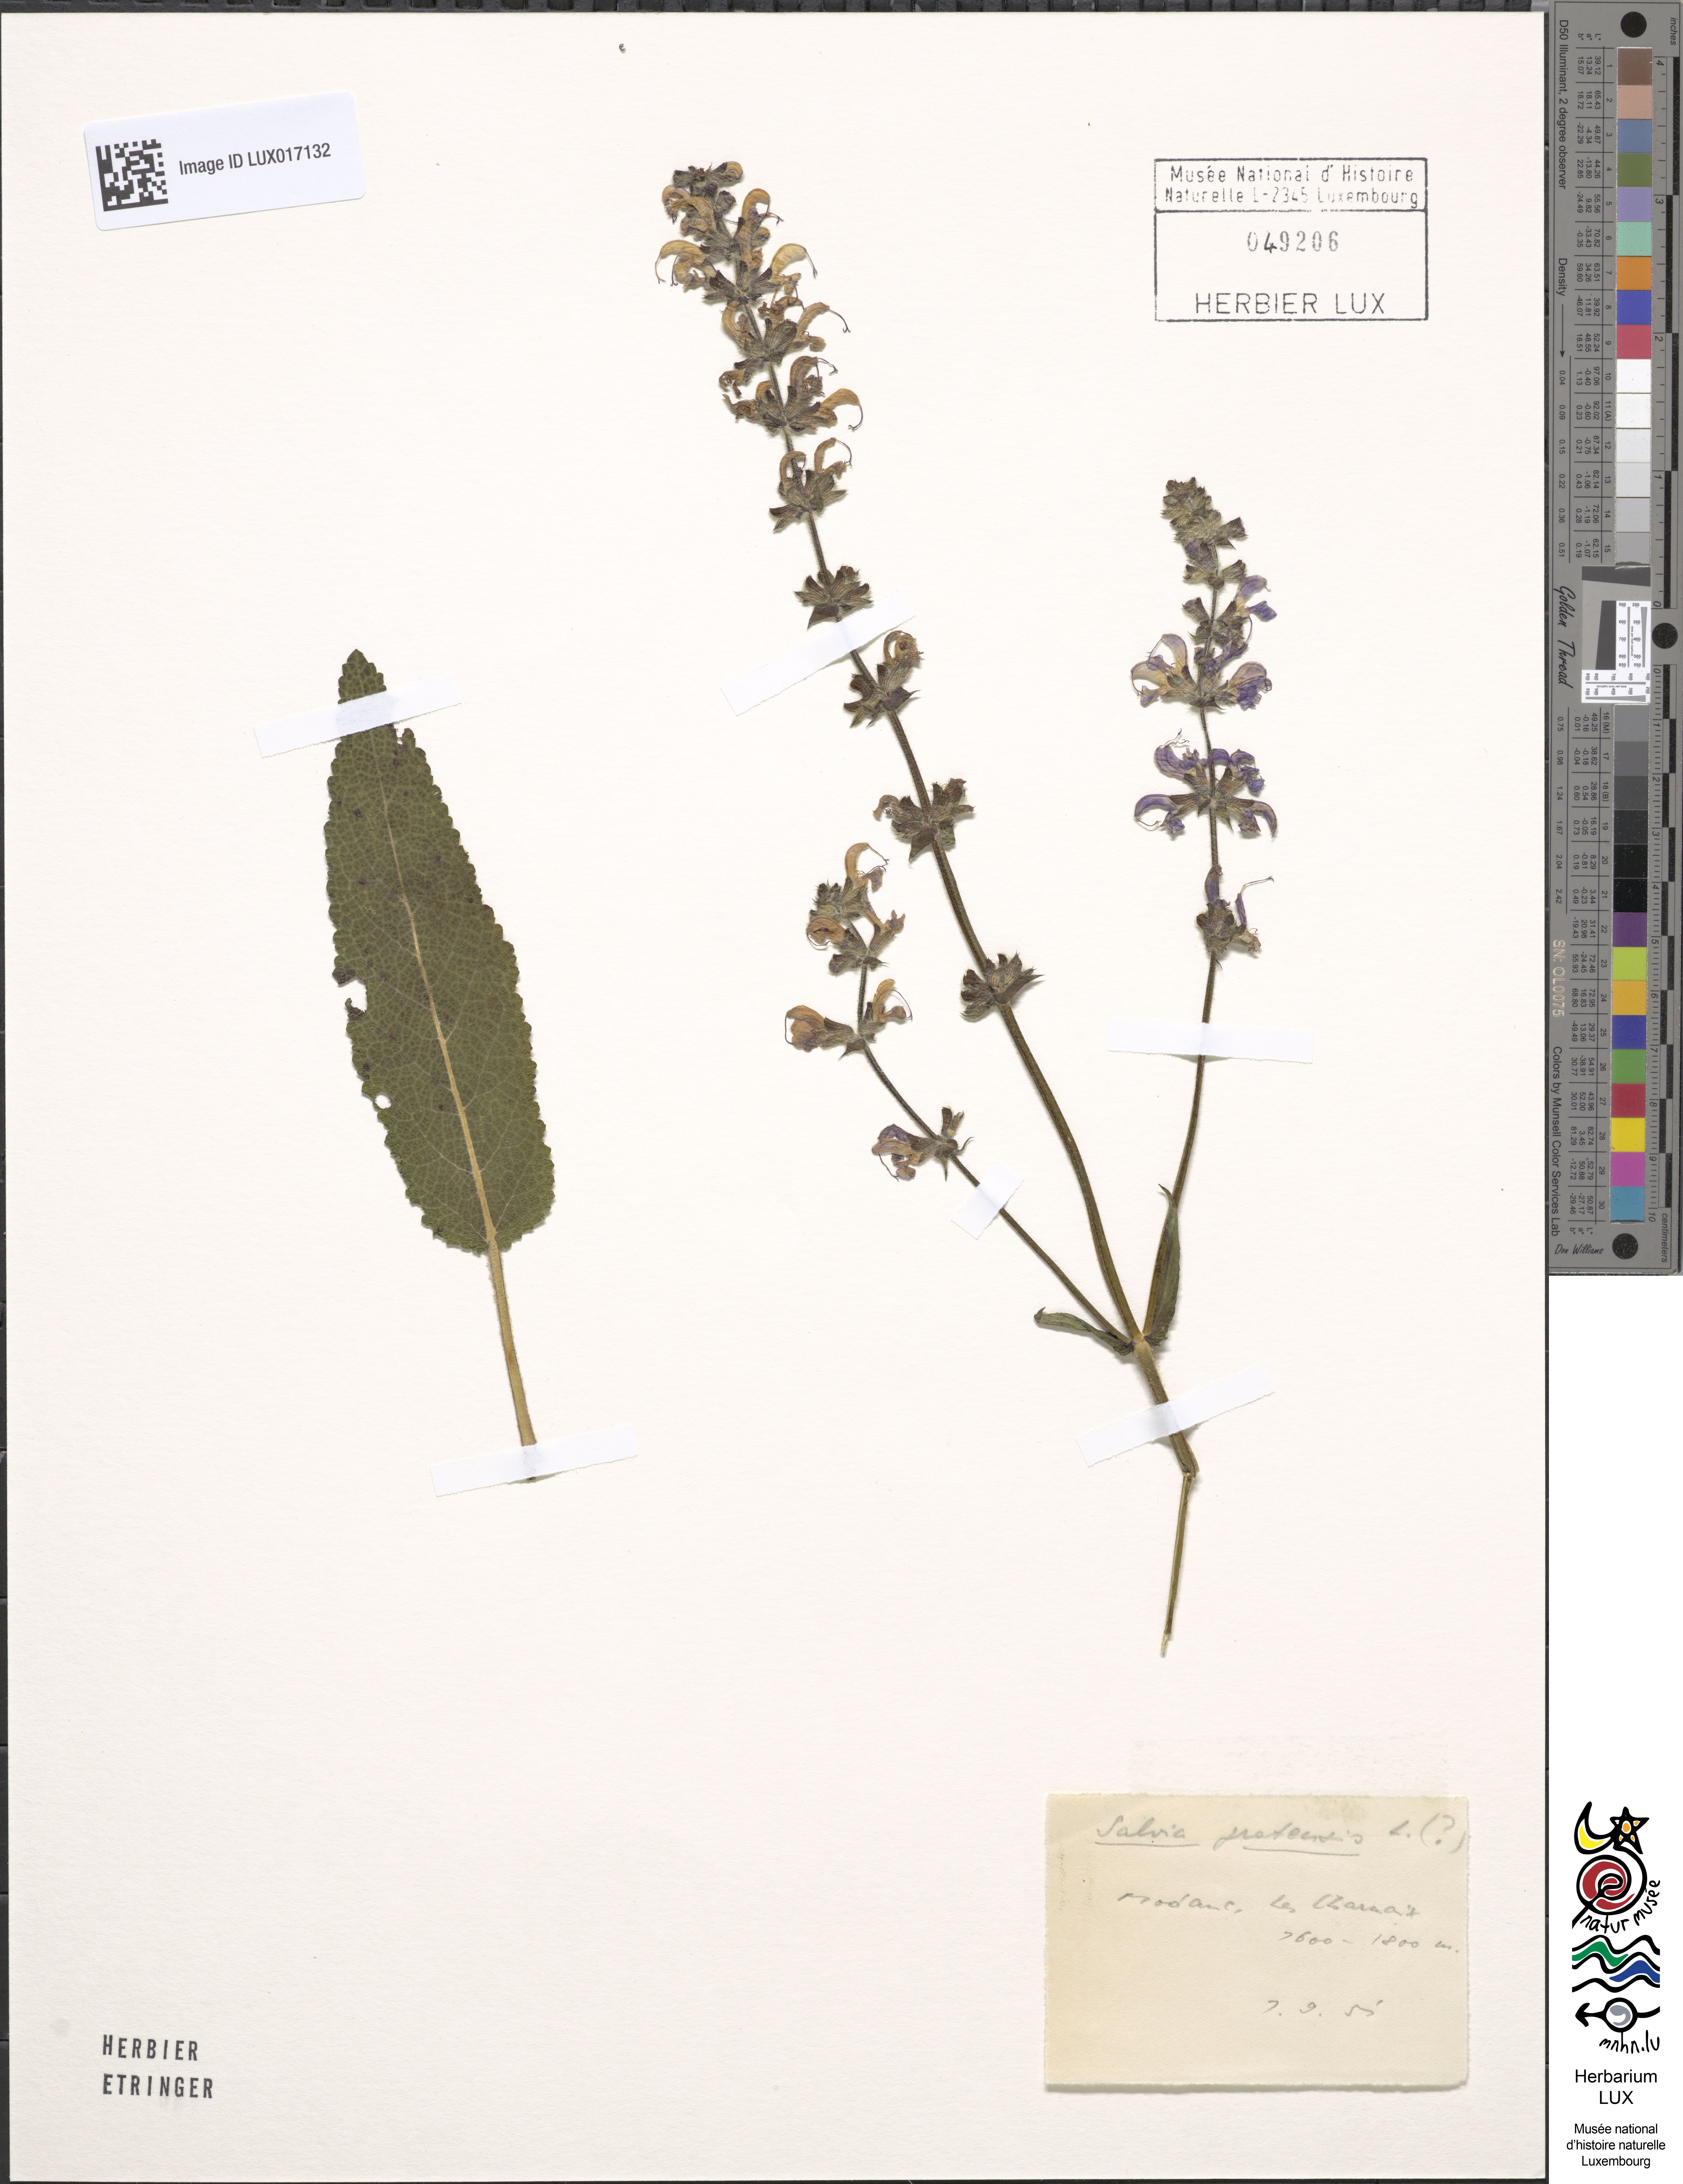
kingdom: Plantae
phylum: Tracheophyta
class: Magnoliopsida
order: Lamiales
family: Lamiaceae
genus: Salvia
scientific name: Salvia pratensis
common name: Meadow sage
